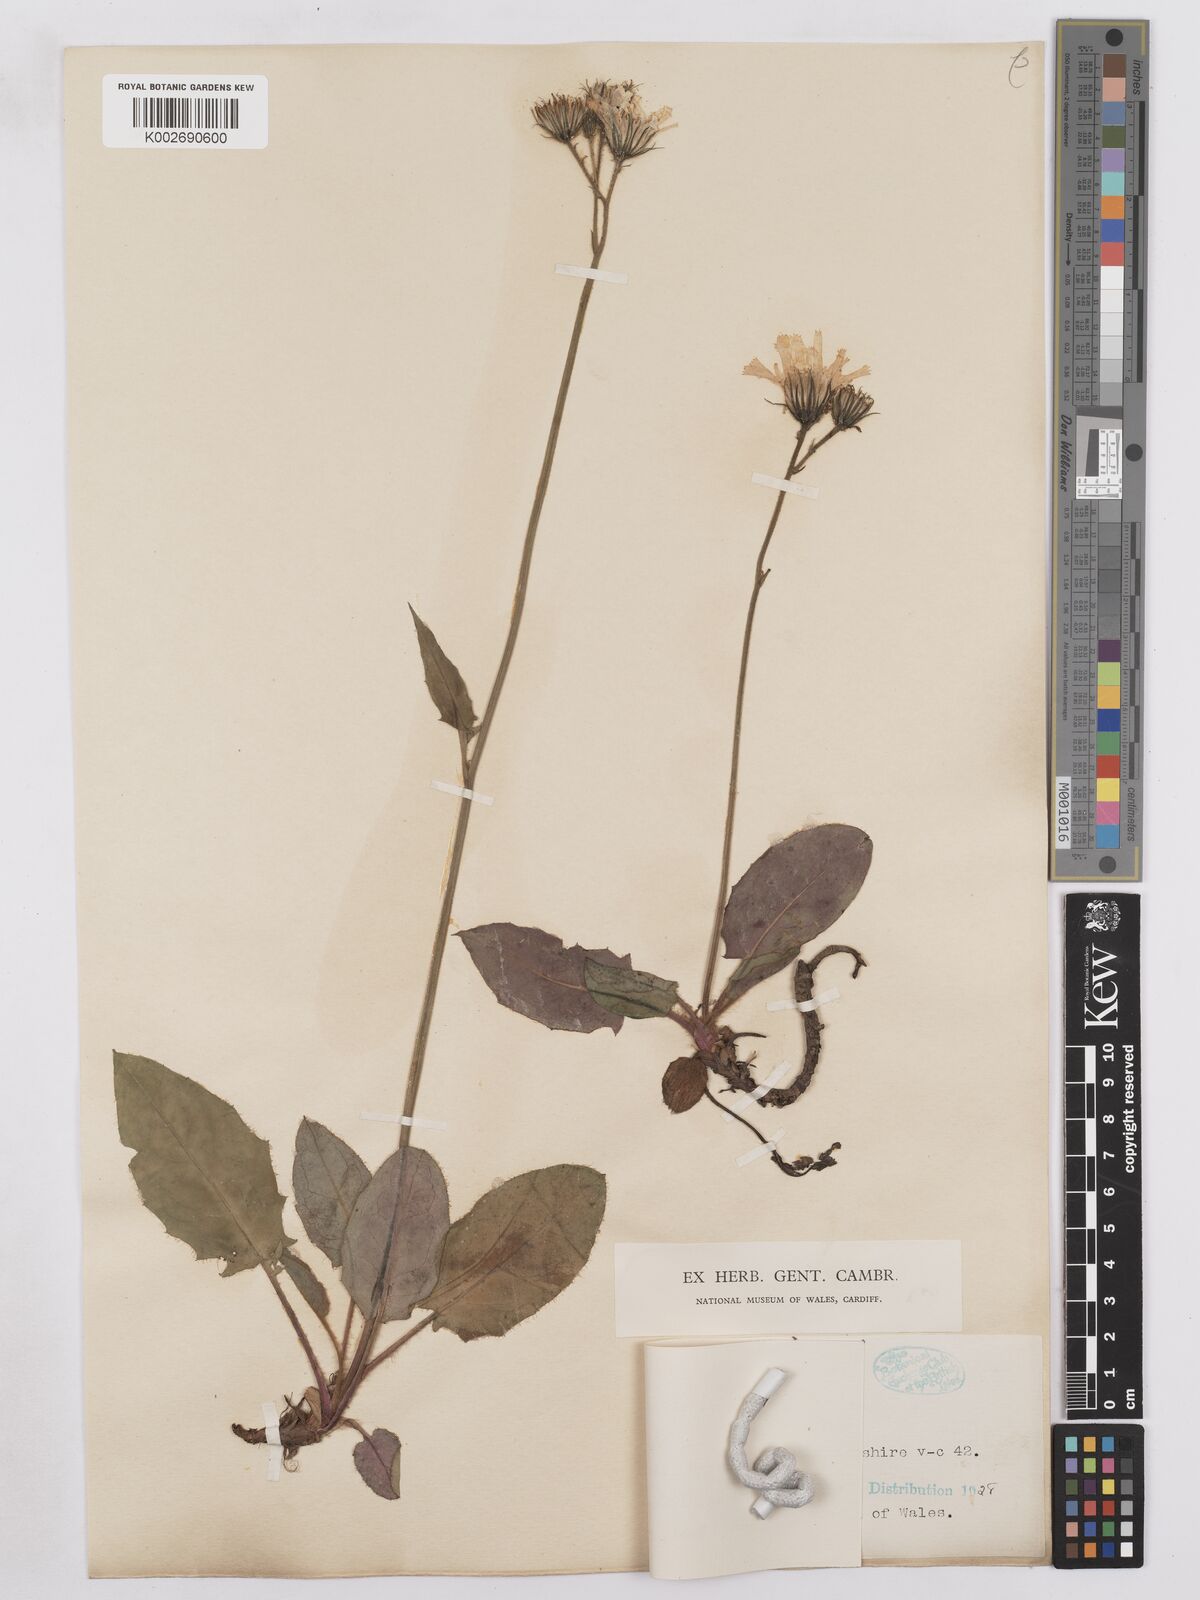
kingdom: Plantae
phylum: Tracheophyta
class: Magnoliopsida
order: Asterales
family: Asteraceae
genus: Hieracium
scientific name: Hieracium subbritannicum
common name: Limestone hawkweed
